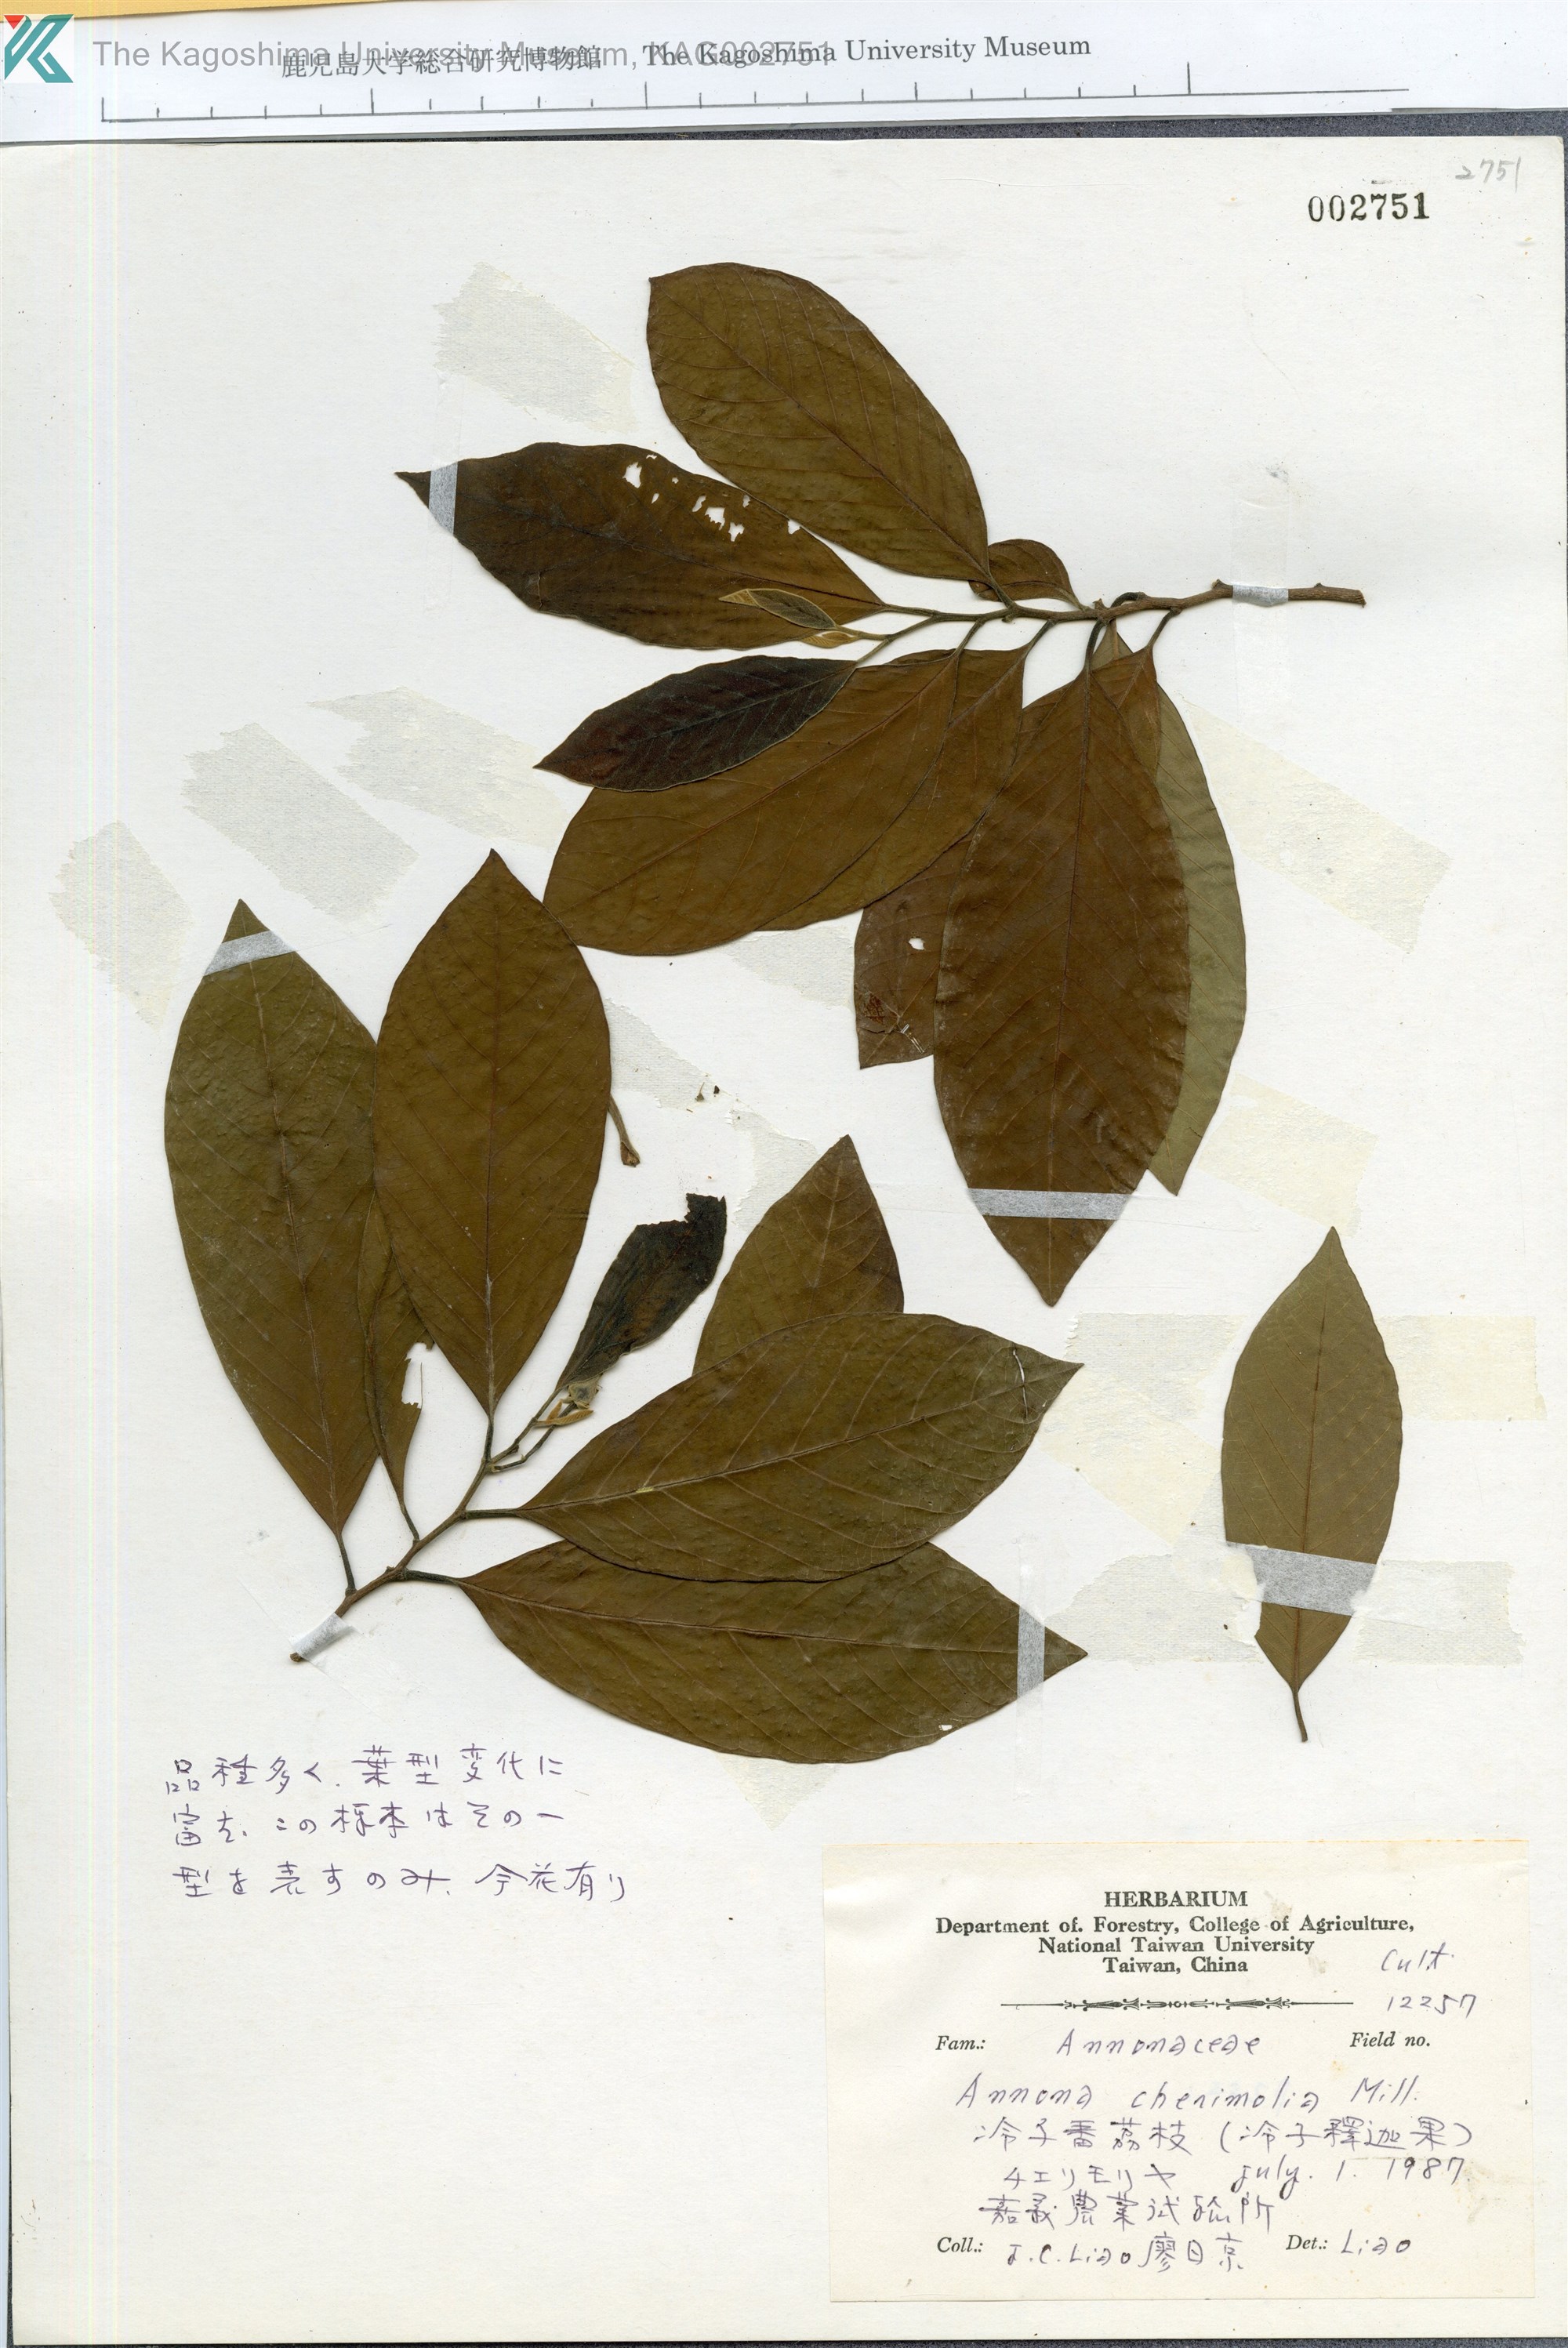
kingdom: Plantae
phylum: Tracheophyta
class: Magnoliopsida
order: Magnoliales
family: Annonaceae
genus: Annona
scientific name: Annona cherimolia
